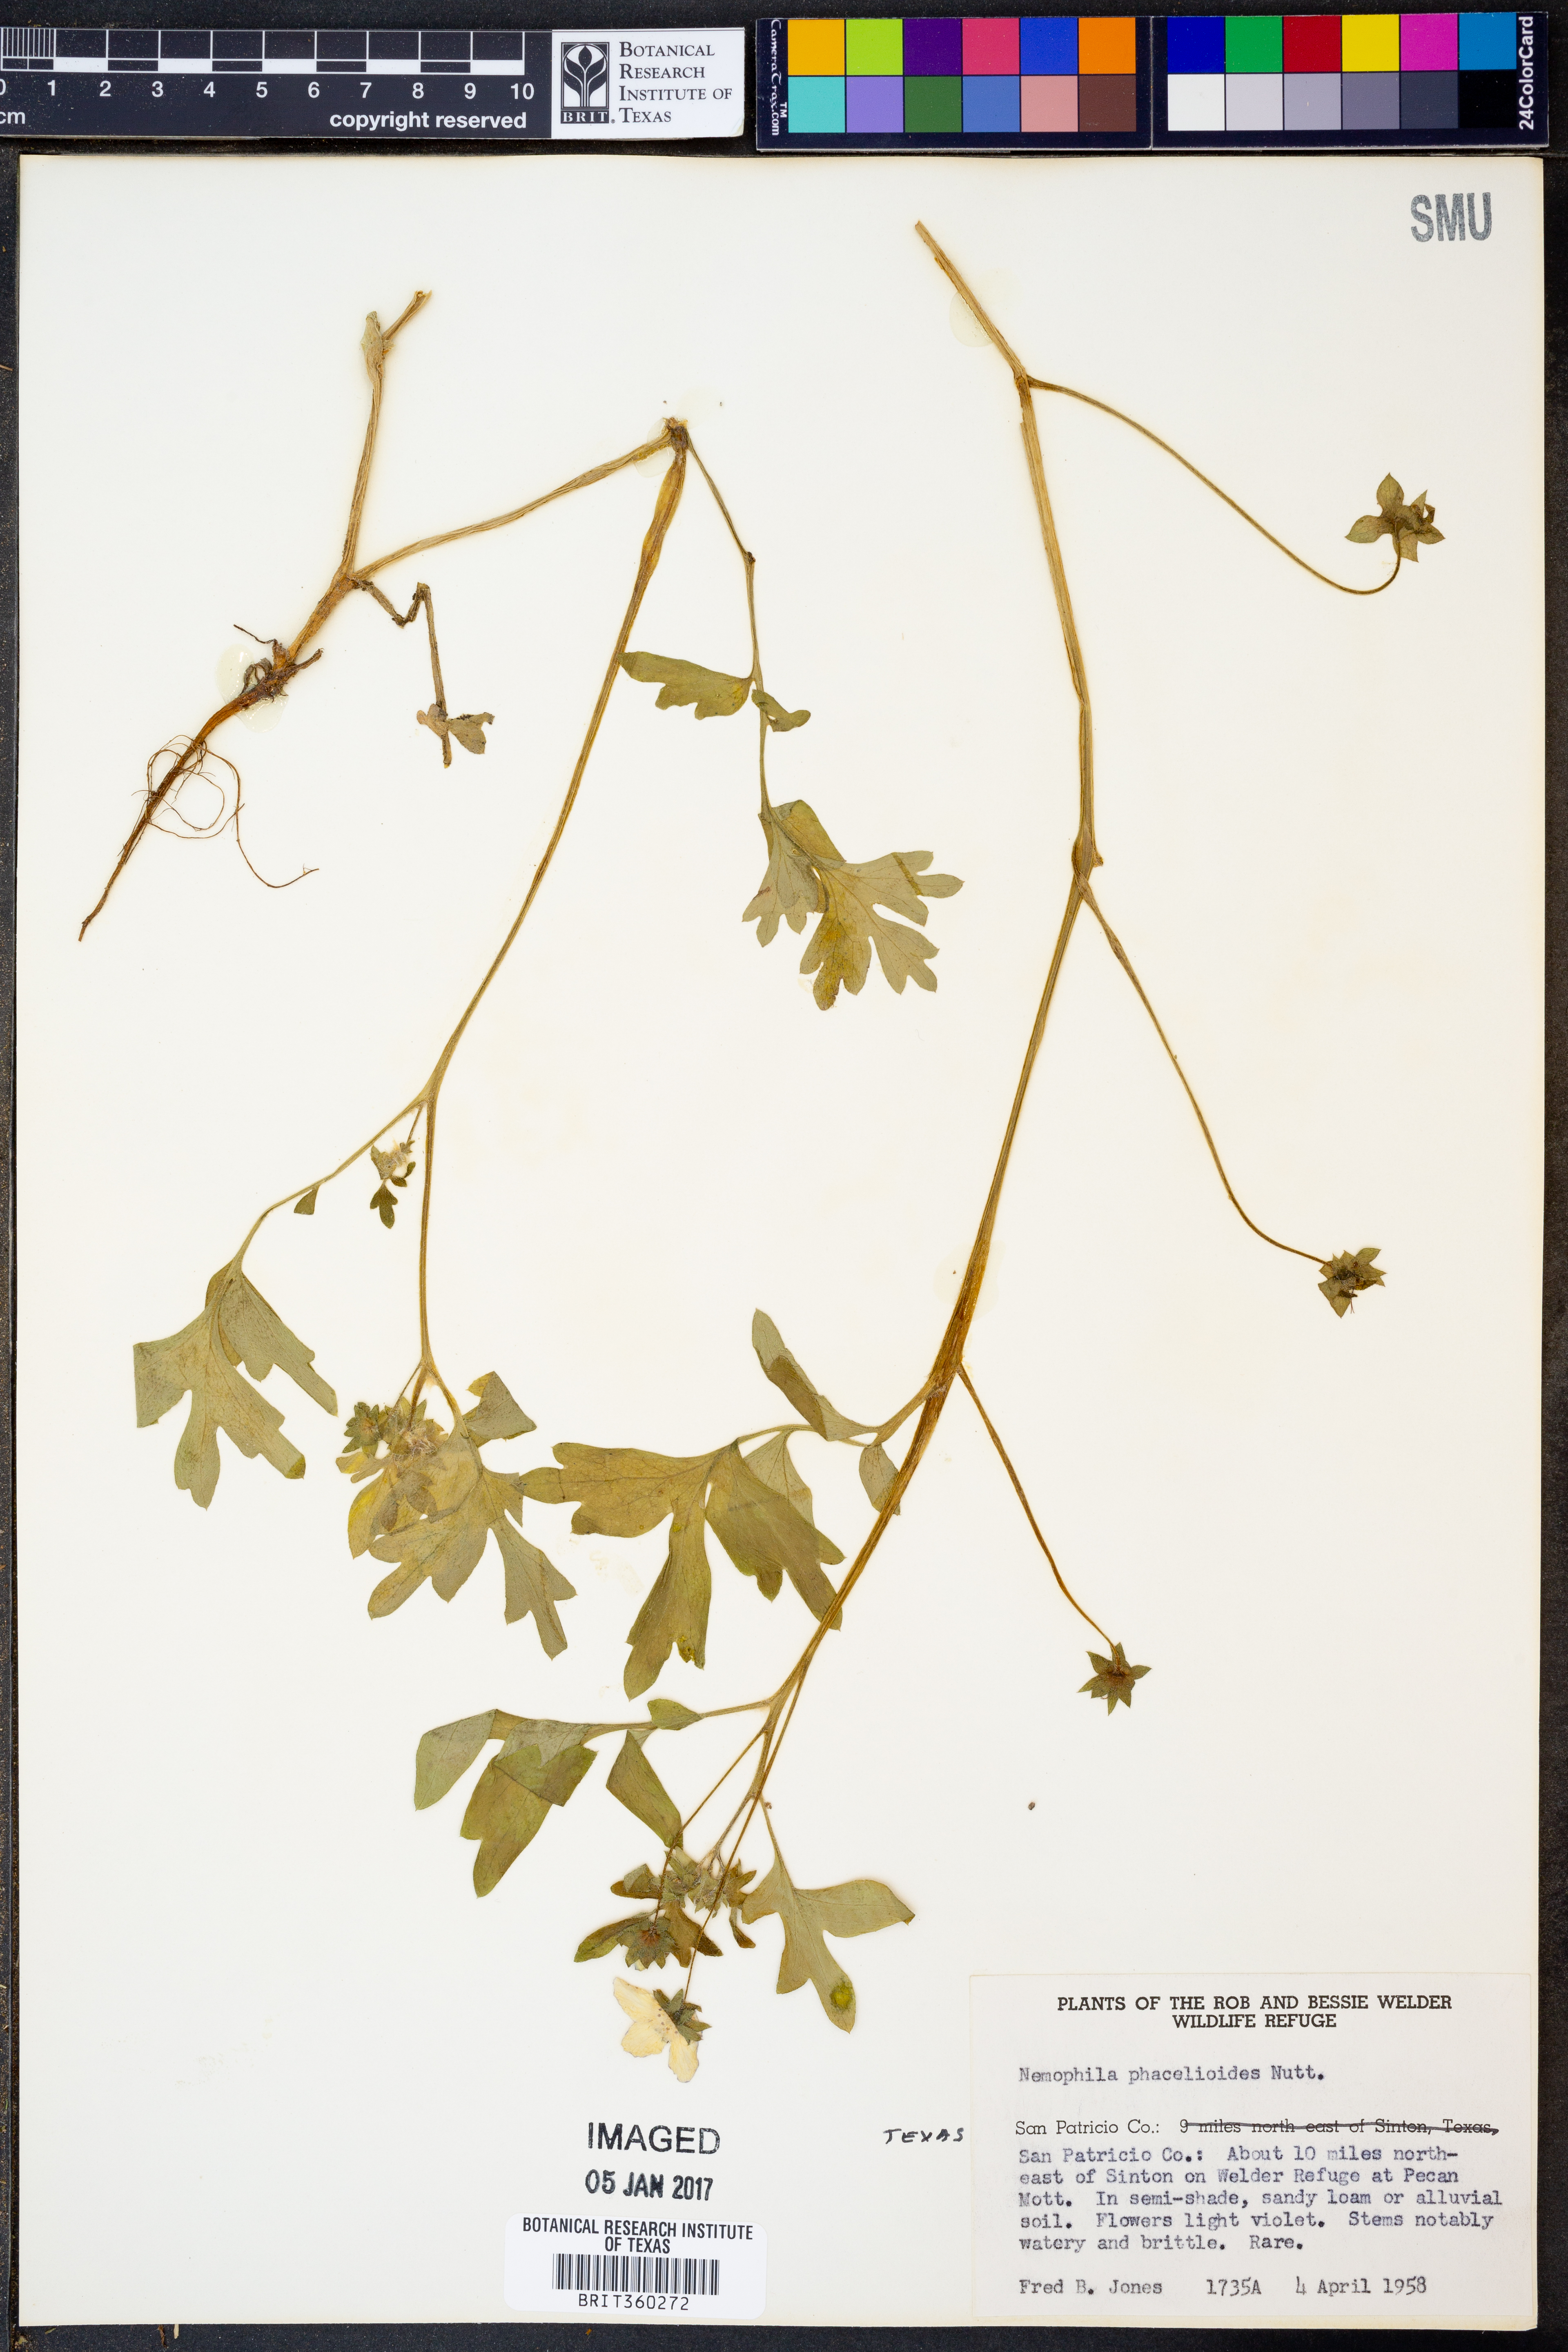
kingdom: Plantae
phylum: Tracheophyta
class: Magnoliopsida
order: Boraginales
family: Hydrophyllaceae
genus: Nemophila
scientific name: Nemophila phacelioides
